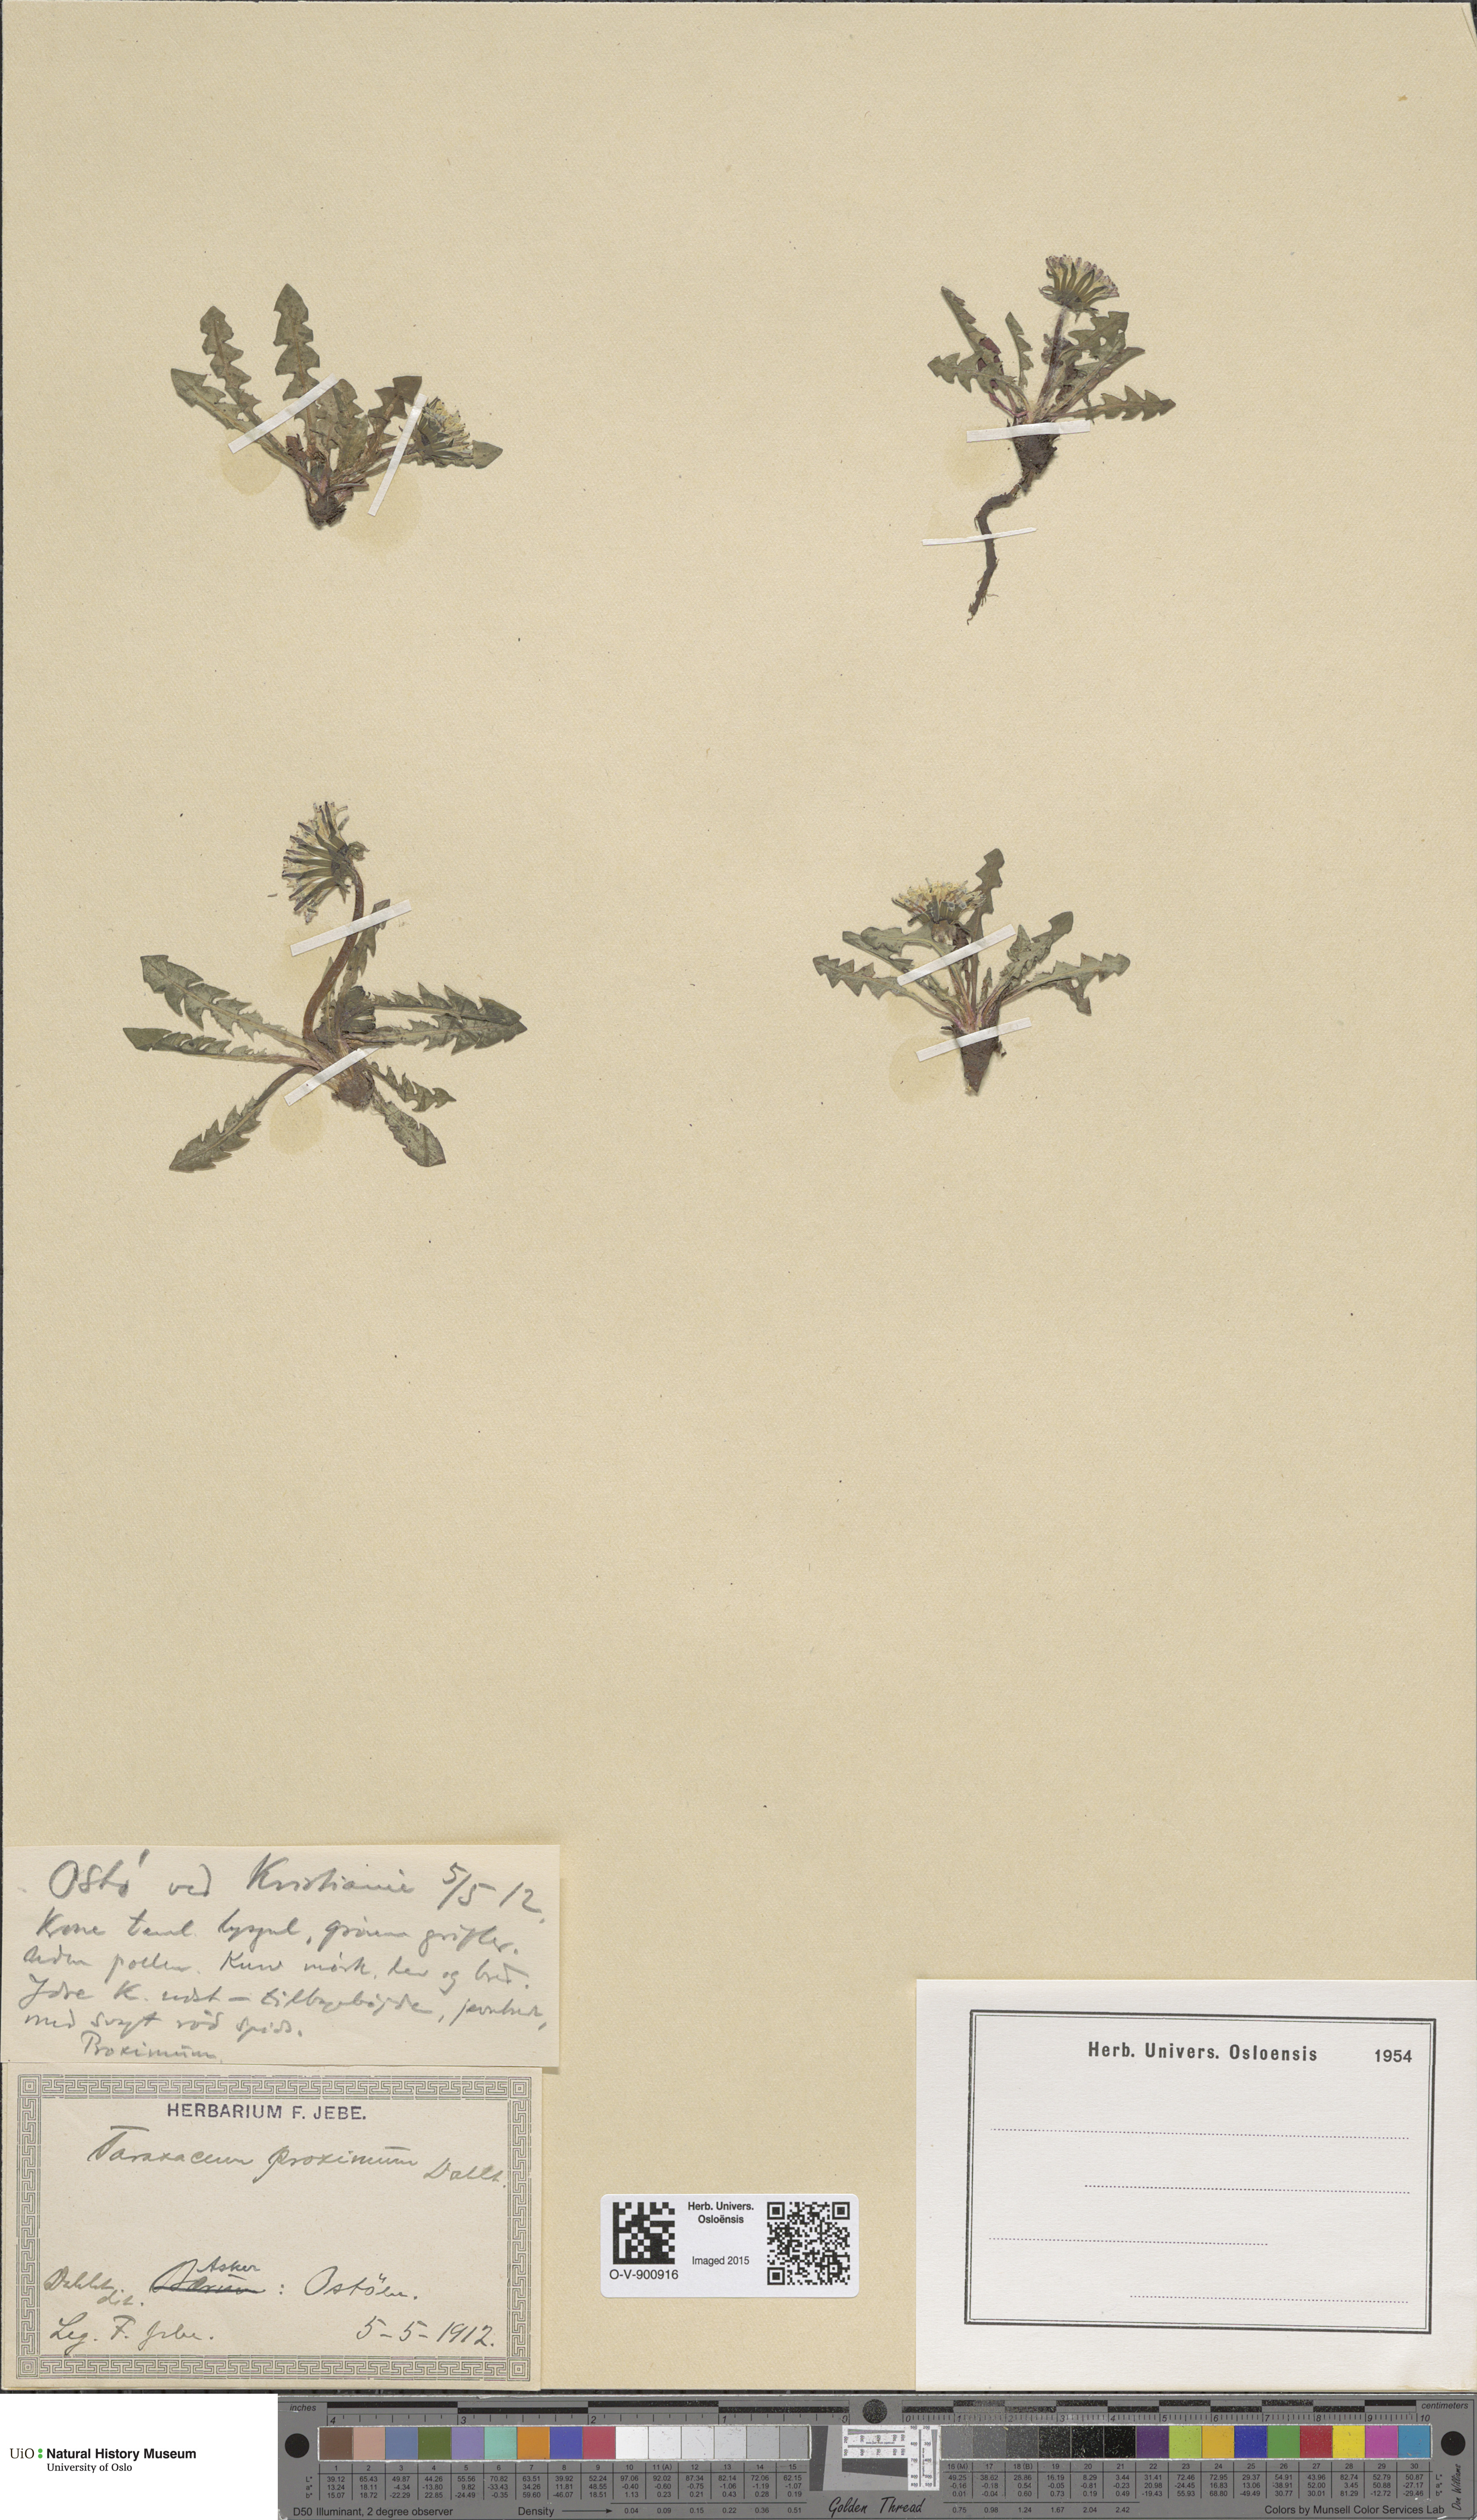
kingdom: Plantae
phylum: Tracheophyta
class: Magnoliopsida
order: Asterales
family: Asteraceae
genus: Taraxacum
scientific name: Taraxacum proximum
